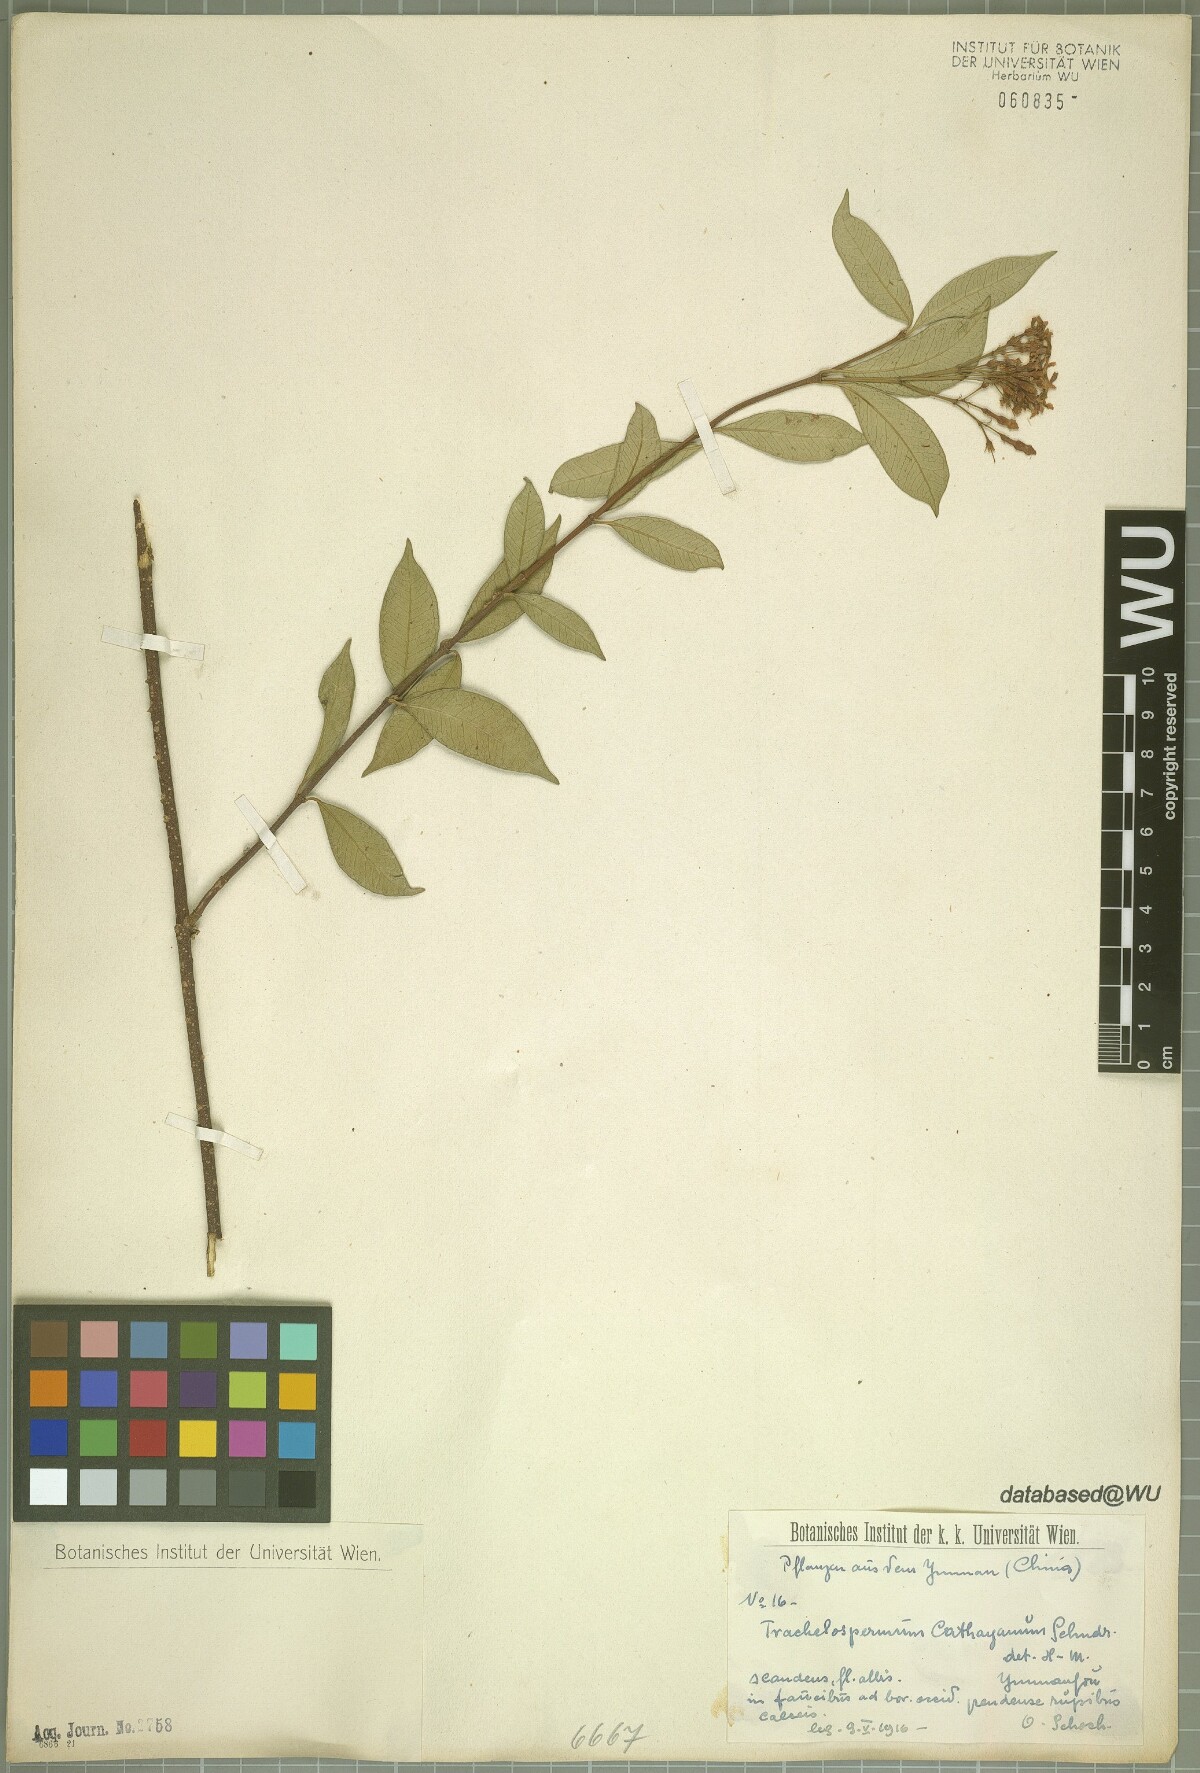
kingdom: Plantae
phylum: Tracheophyta
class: Magnoliopsida
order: Gentianales
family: Apocynaceae
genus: Trachelospermum
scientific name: Trachelospermum bodinieri
